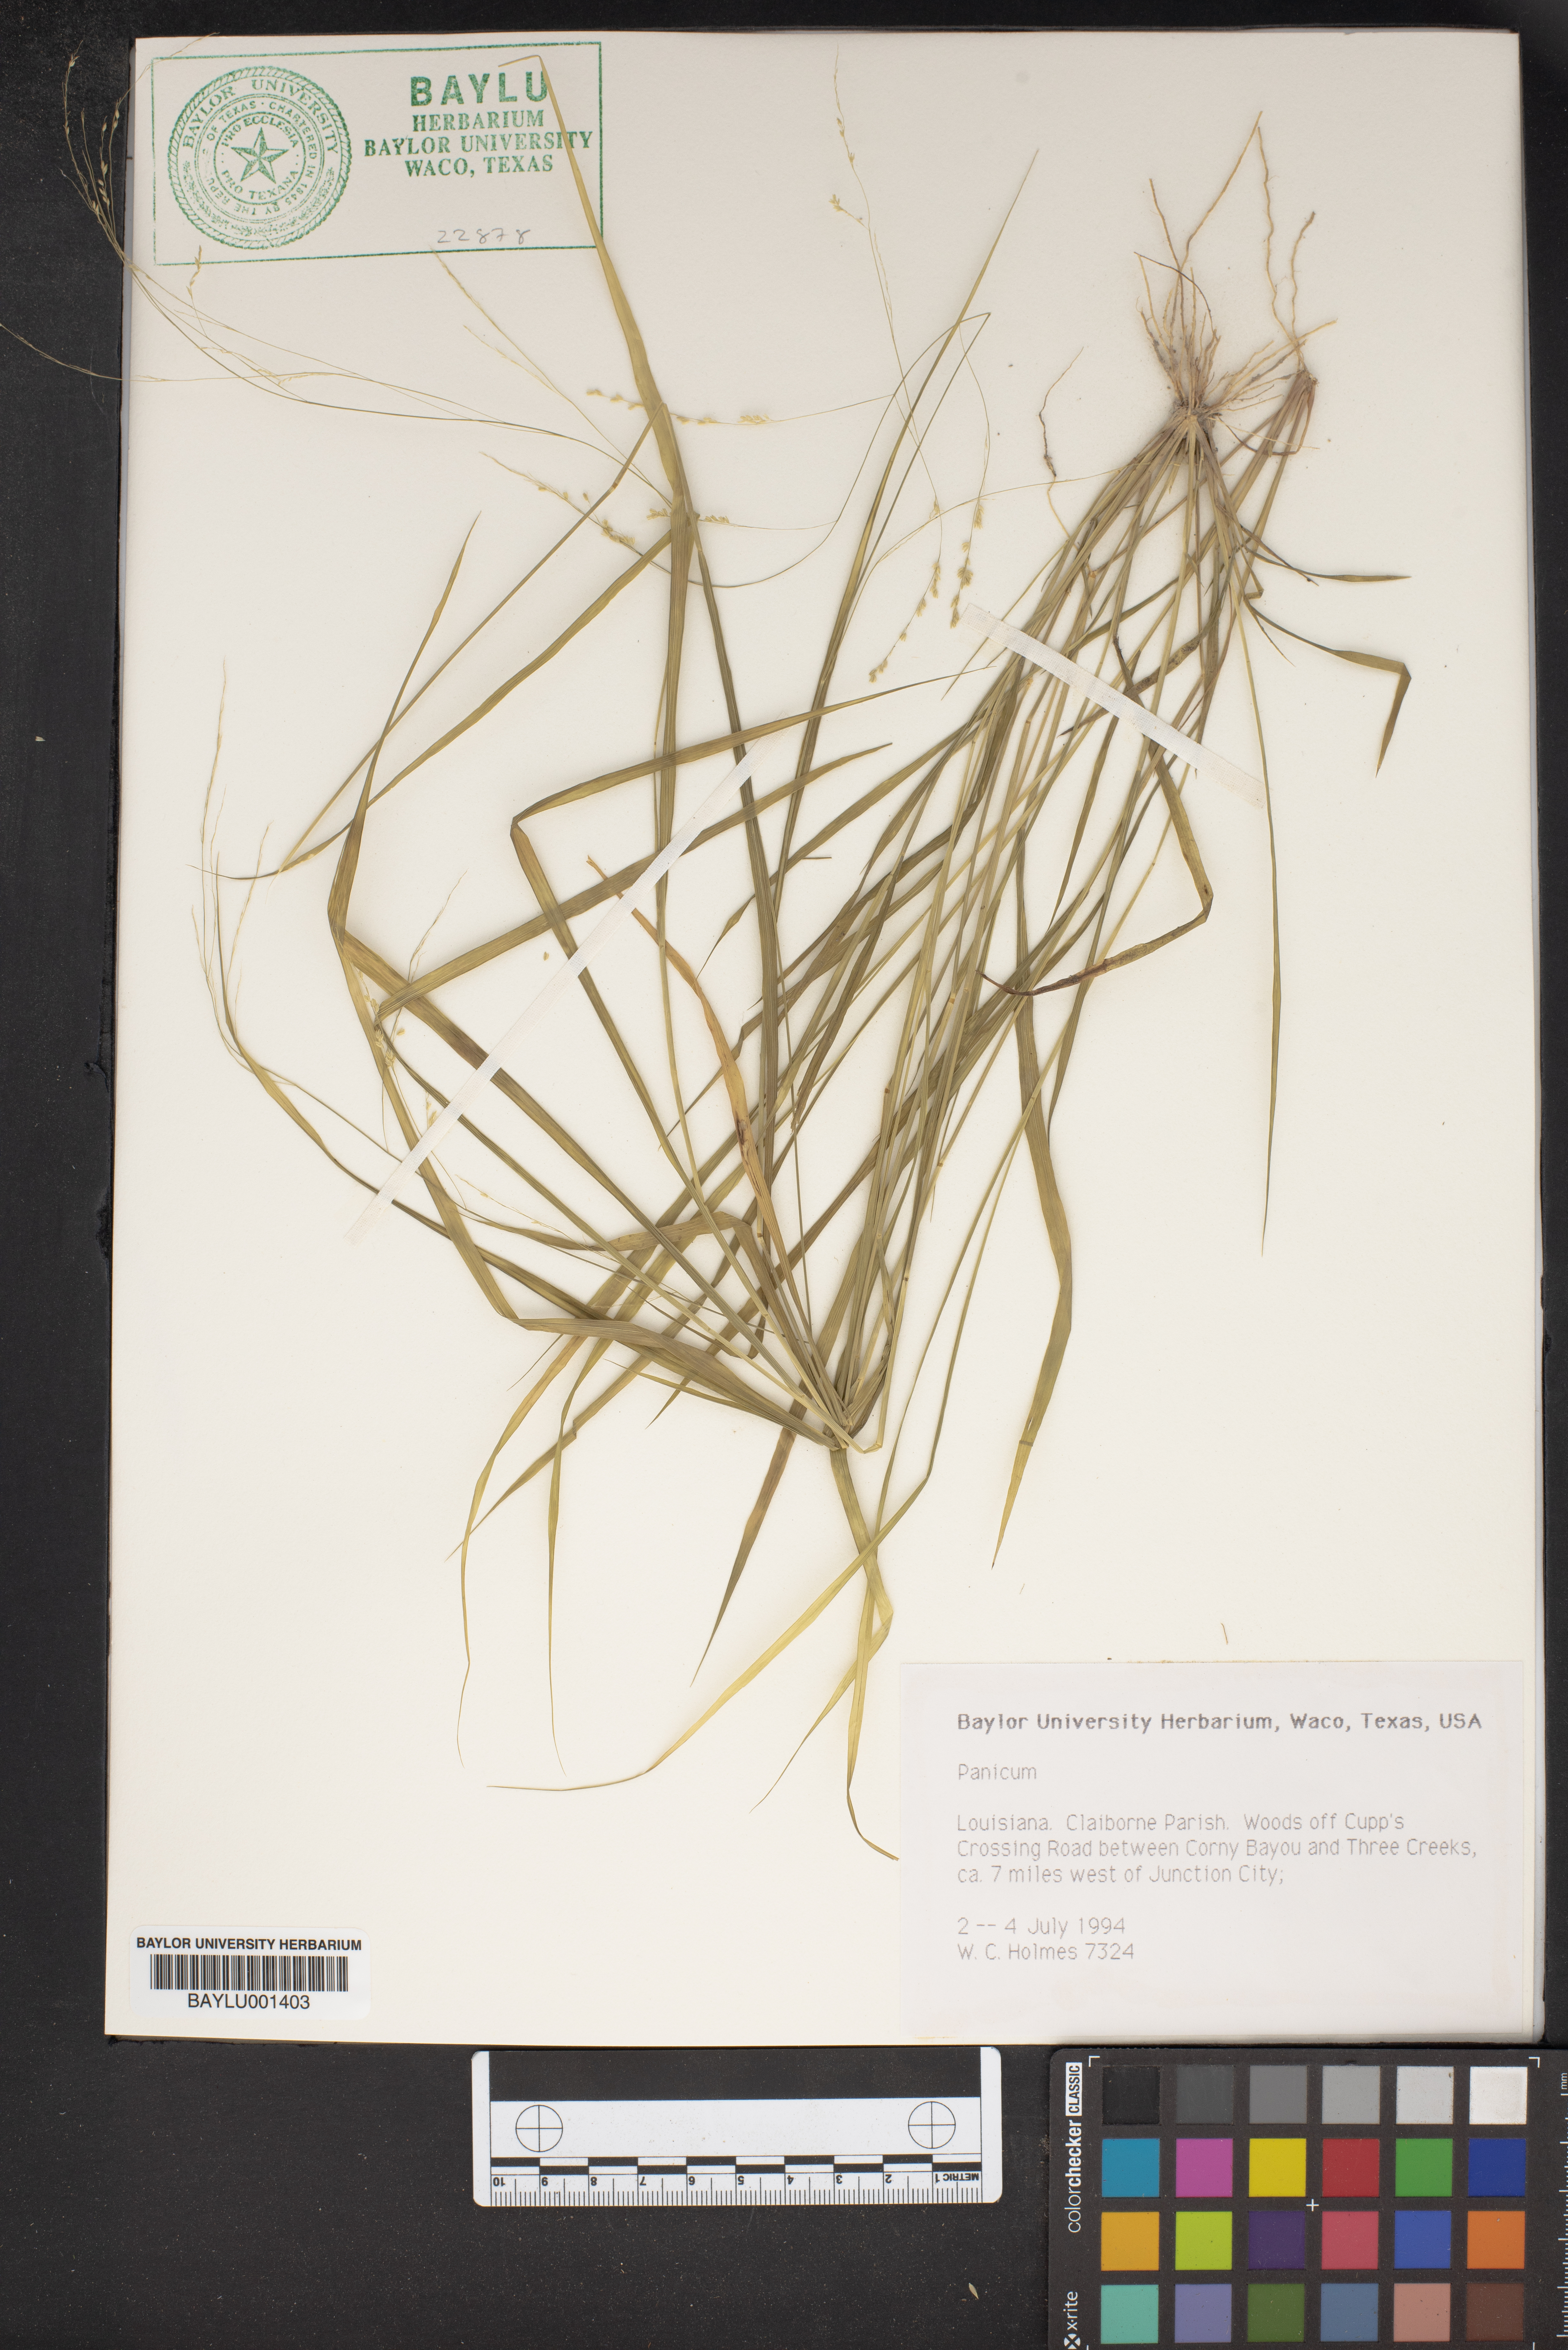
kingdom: Plantae
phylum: Tracheophyta
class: Liliopsida
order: Poales
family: Poaceae
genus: Panicum
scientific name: Panicum
